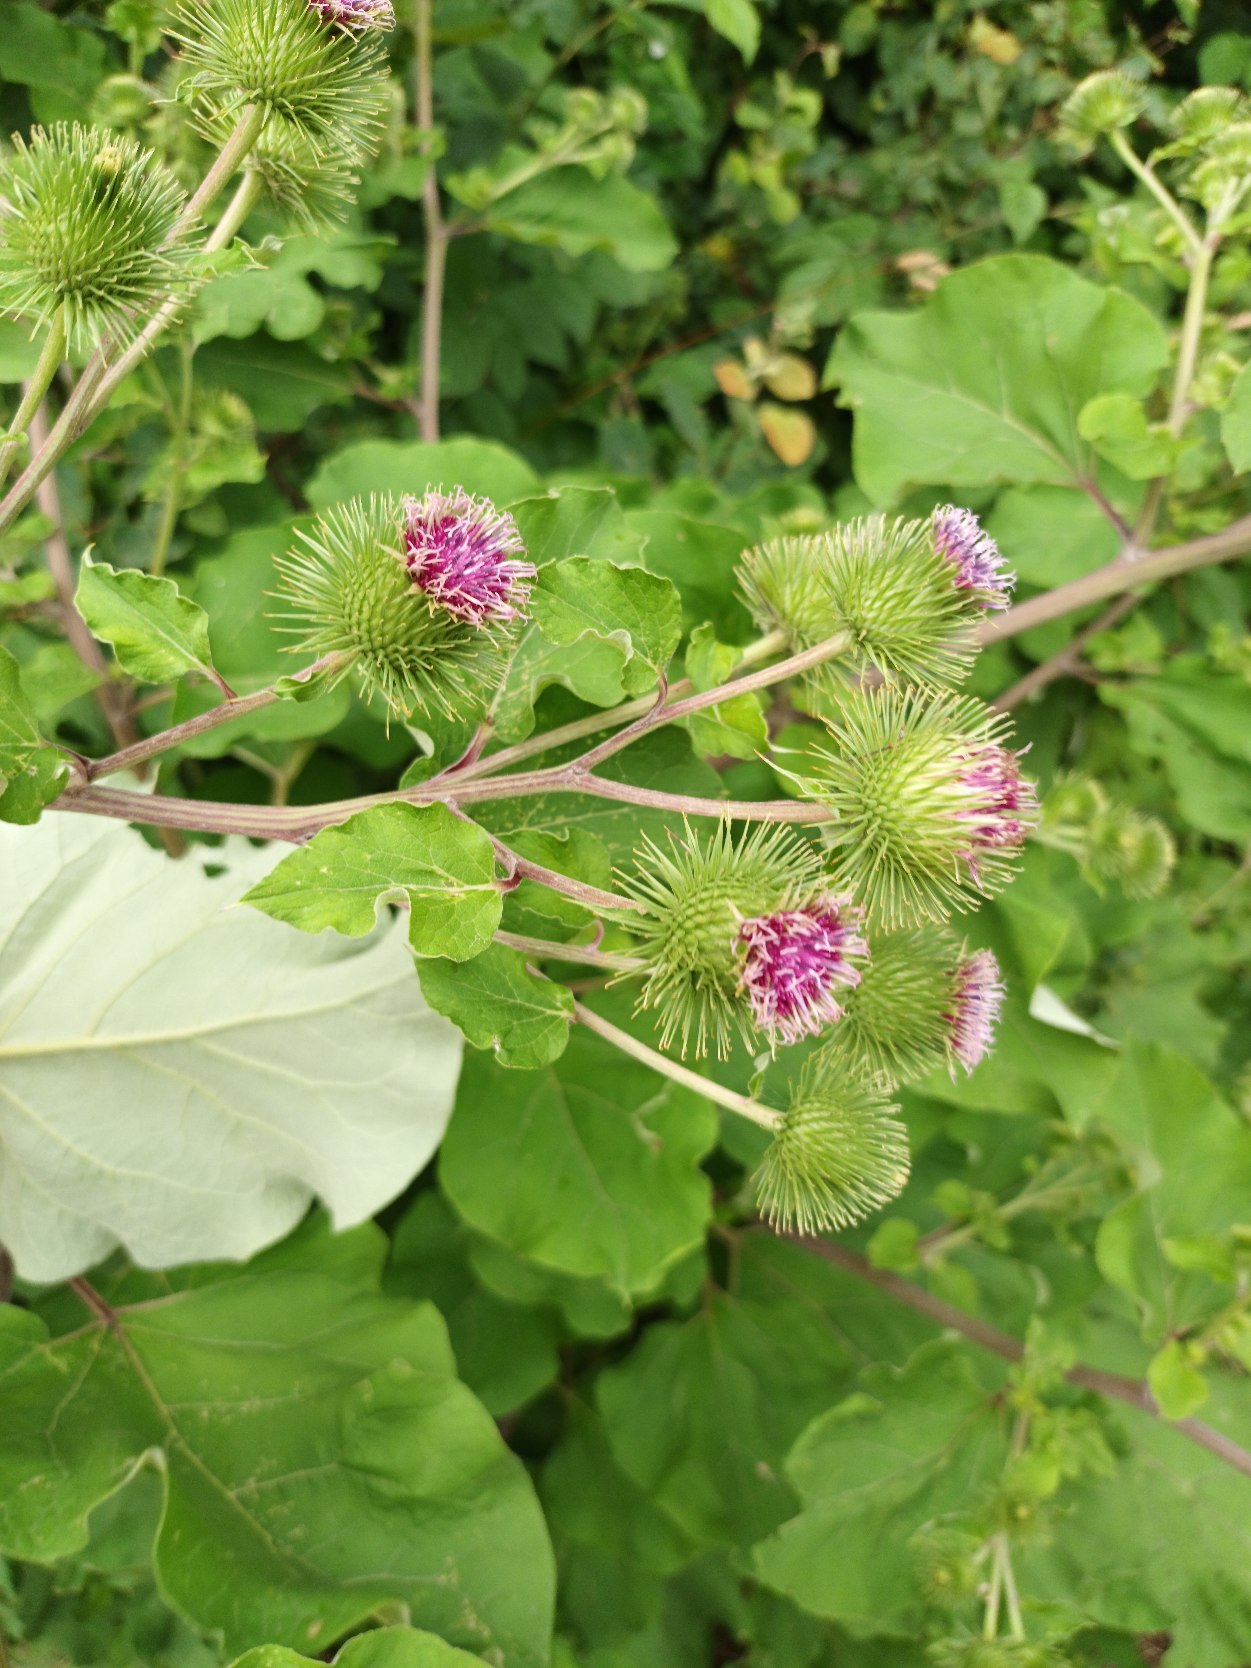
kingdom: Plantae
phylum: Tracheophyta
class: Magnoliopsida
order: Asterales
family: Asteraceae
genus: Arctium
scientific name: Arctium lappa
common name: Glat burre
